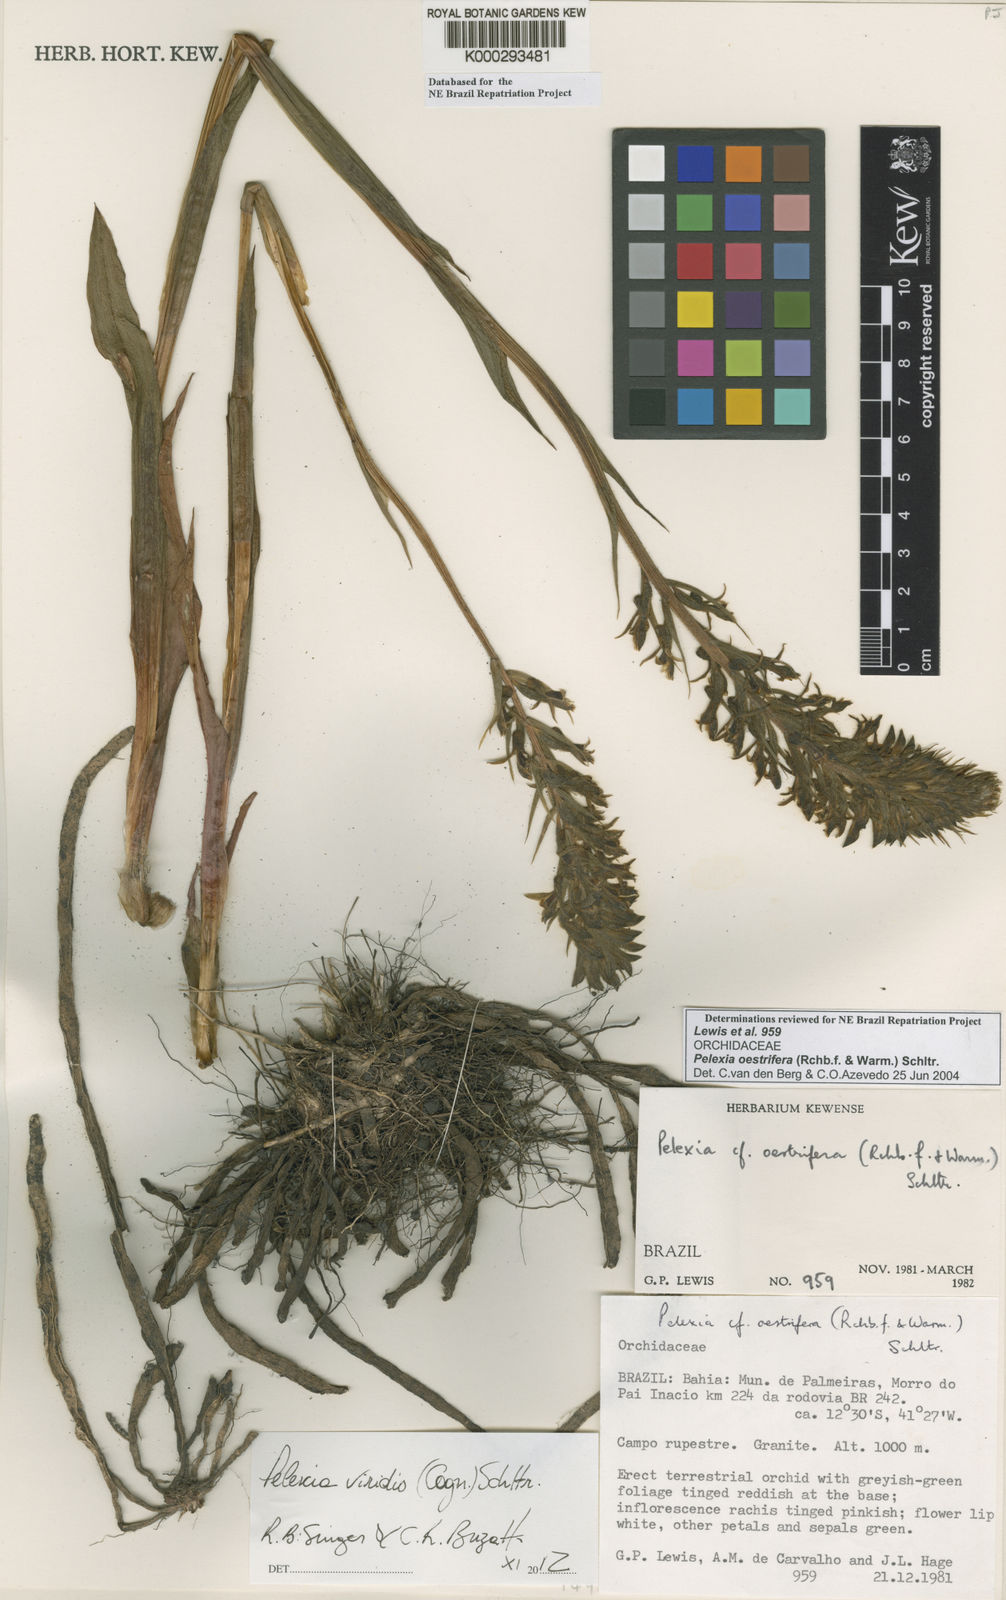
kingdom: Plantae
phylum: Tracheophyta
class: Liliopsida
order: Asparagales
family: Orchidaceae
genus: Pelexia
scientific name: Pelexia oestrifera
